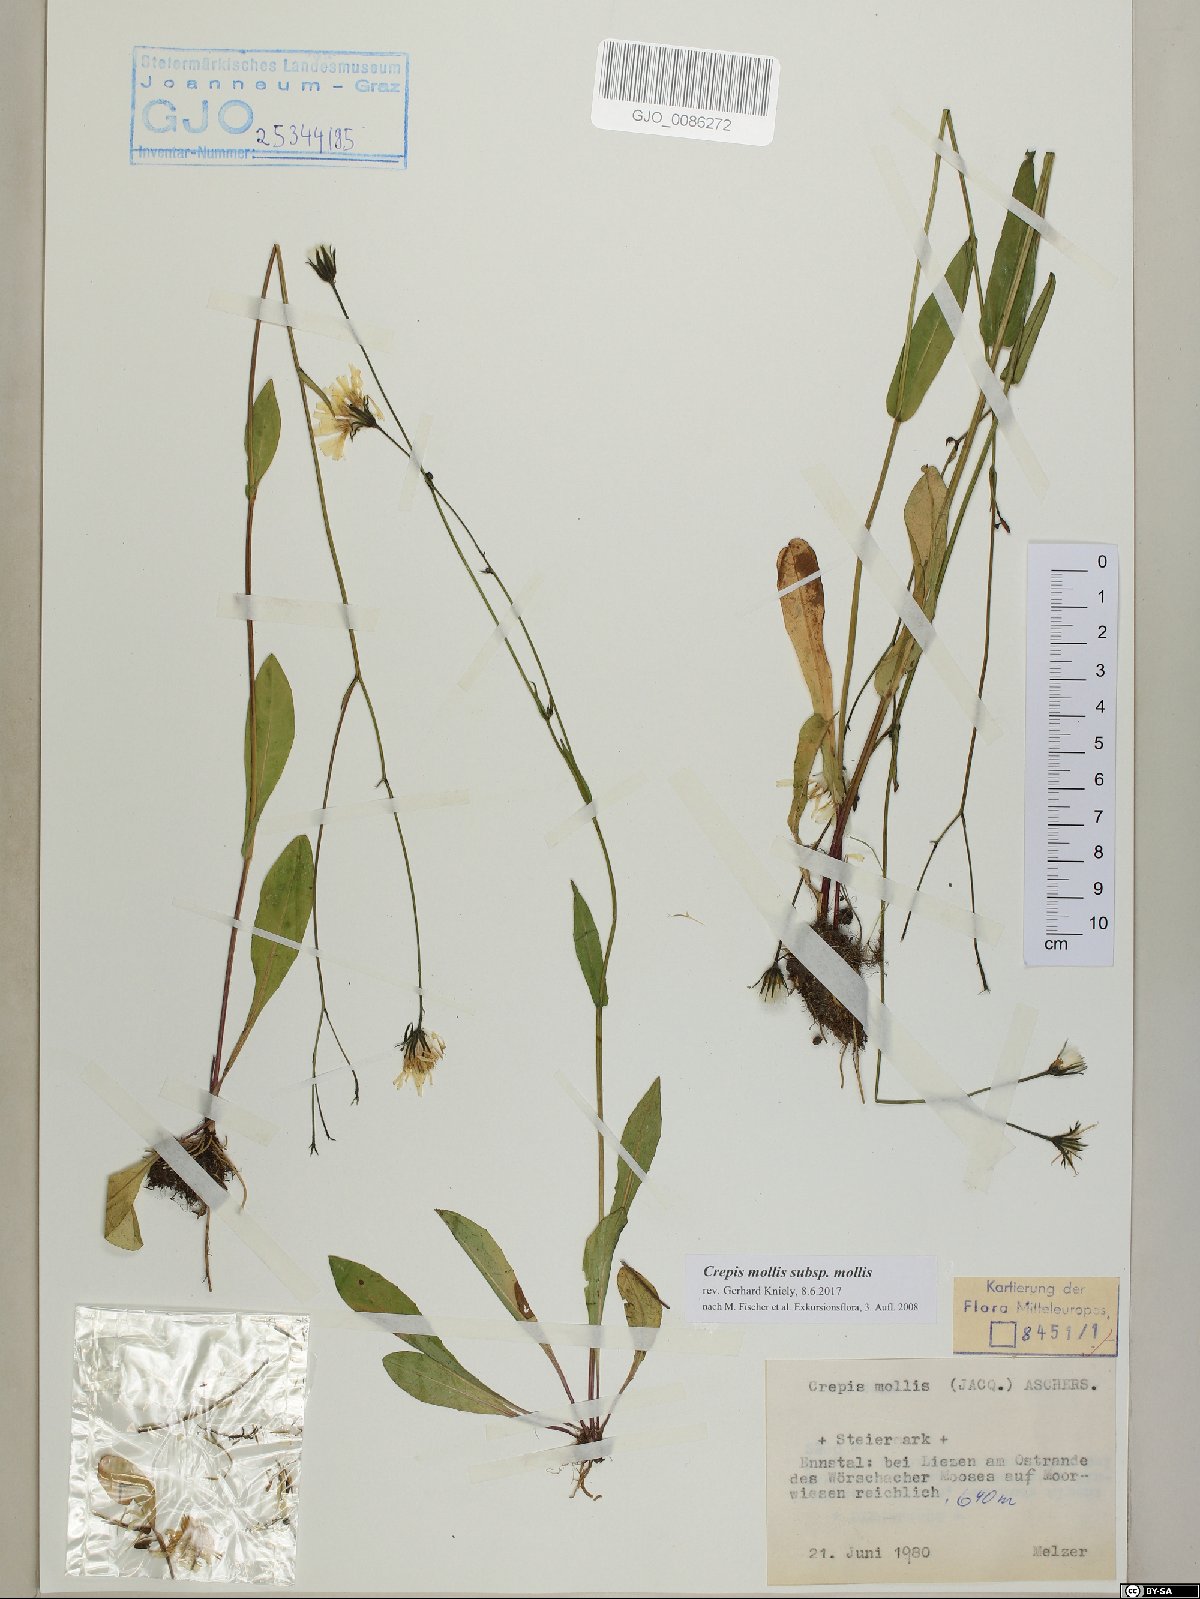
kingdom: Plantae
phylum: Tracheophyta
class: Magnoliopsida
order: Asterales
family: Asteraceae
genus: Crepis
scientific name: Crepis mollis
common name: Northern hawk's-beard
